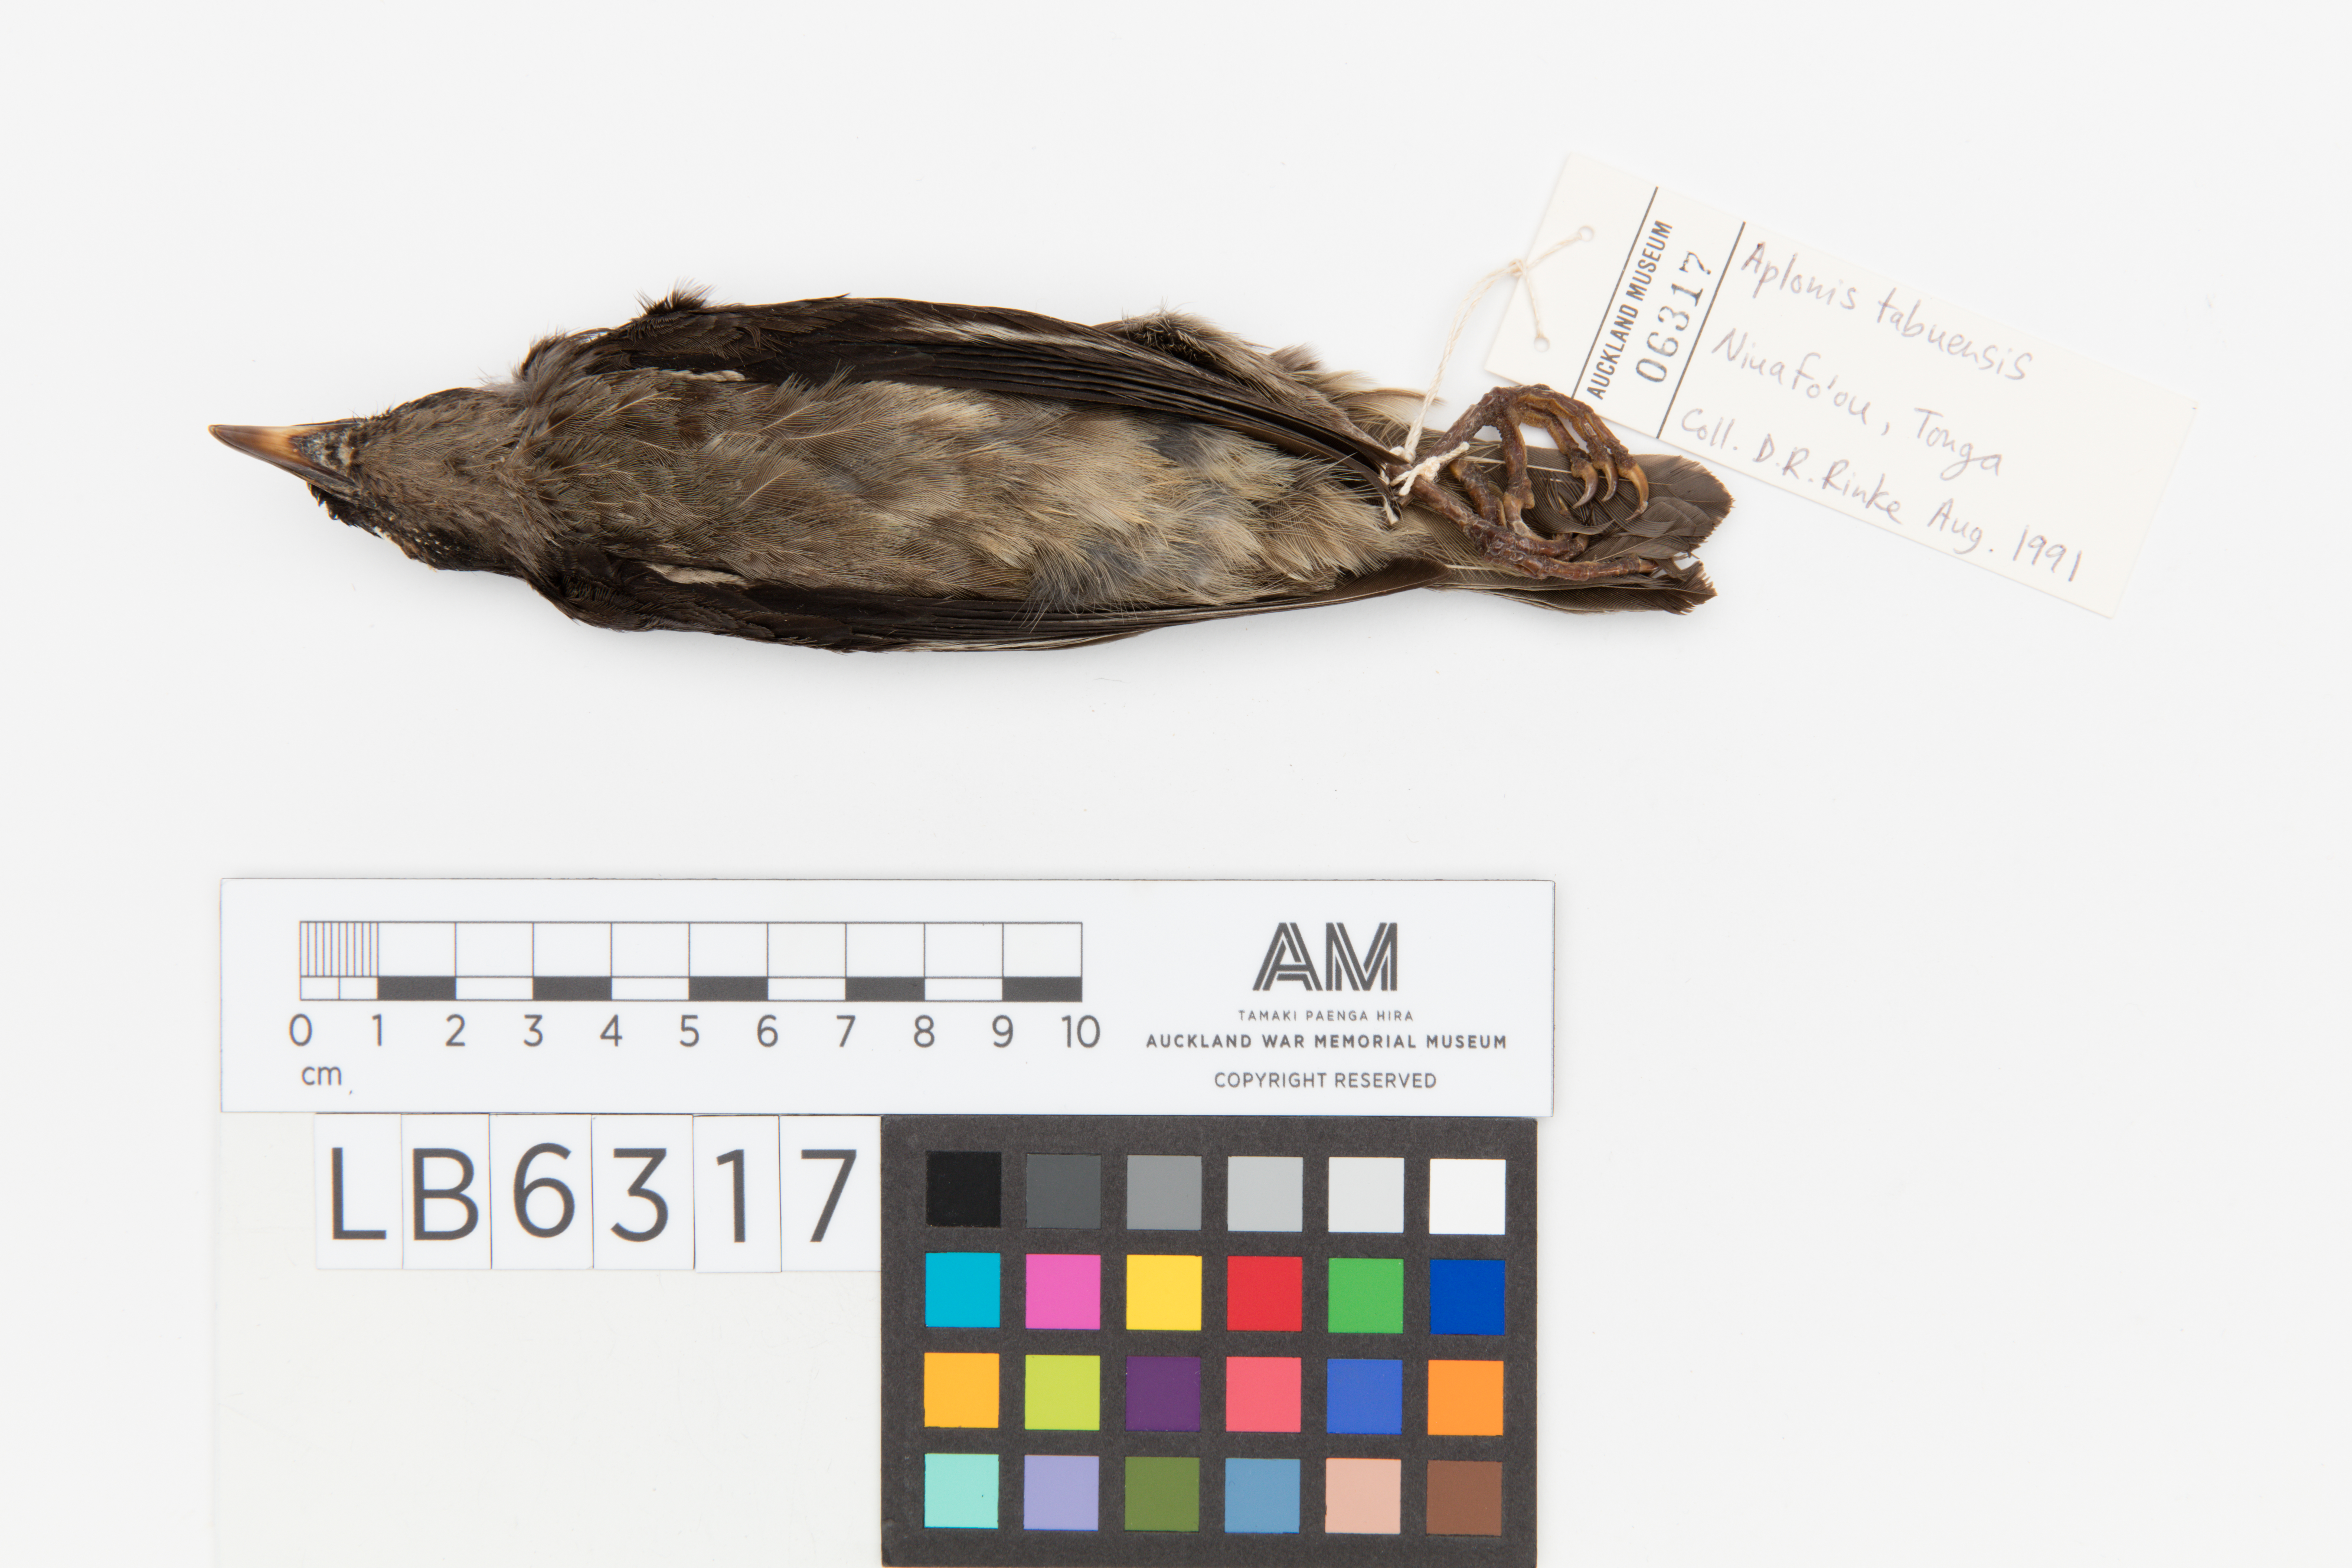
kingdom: Animalia
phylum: Chordata
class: Aves
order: Passeriformes
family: Sturnidae
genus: Aplonis
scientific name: Aplonis tabuensis
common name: Polynesian starling
